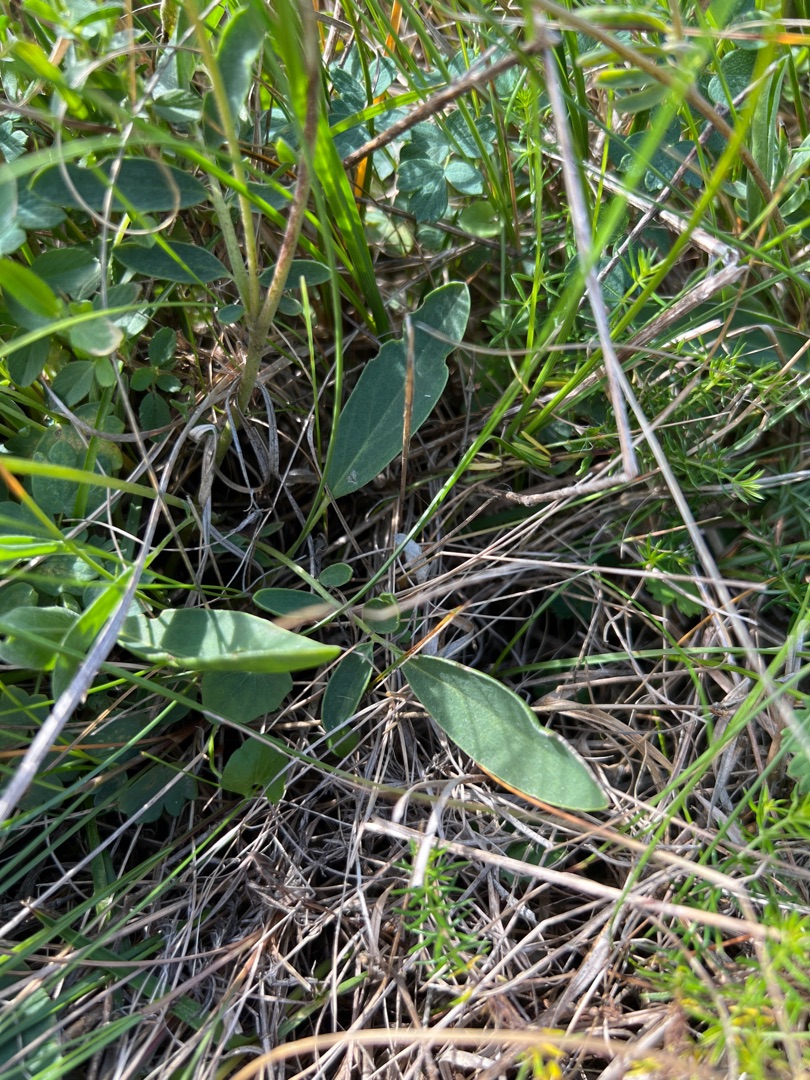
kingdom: Plantae
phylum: Tracheophyta
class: Magnoliopsida
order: Fabales
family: Fabaceae
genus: Anthyllis
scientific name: Anthyllis vulneraria
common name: Rundbælg
